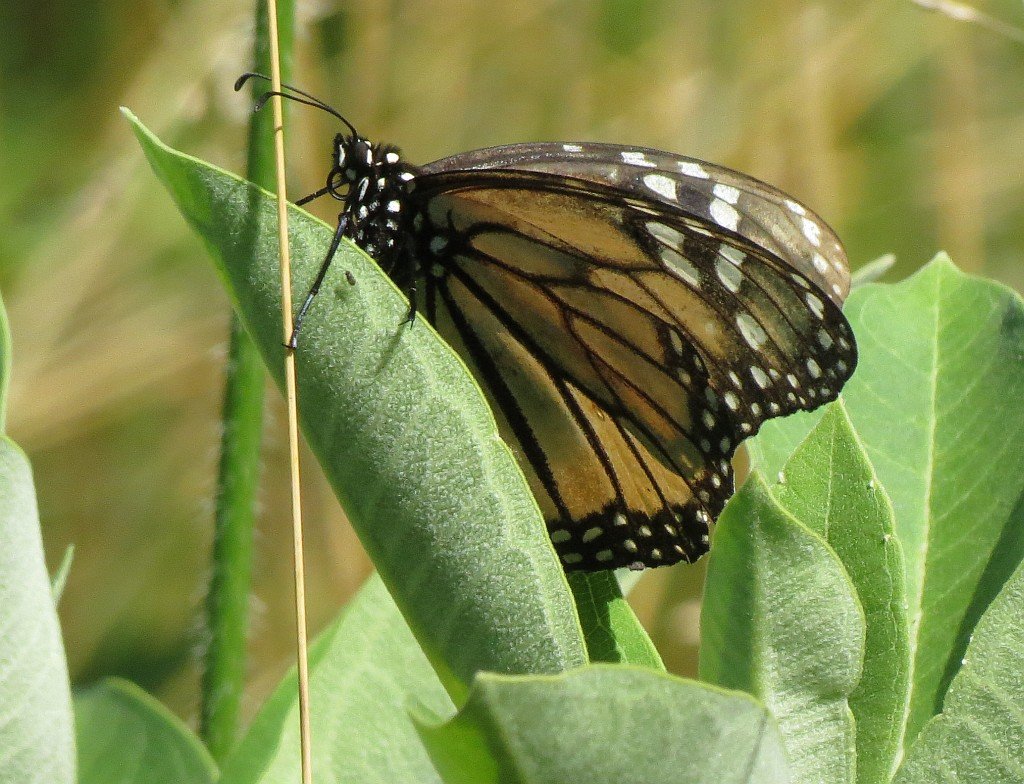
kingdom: Animalia
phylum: Arthropoda
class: Insecta
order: Lepidoptera
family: Nymphalidae
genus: Danaus
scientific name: Danaus plexippus
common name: Monarch
